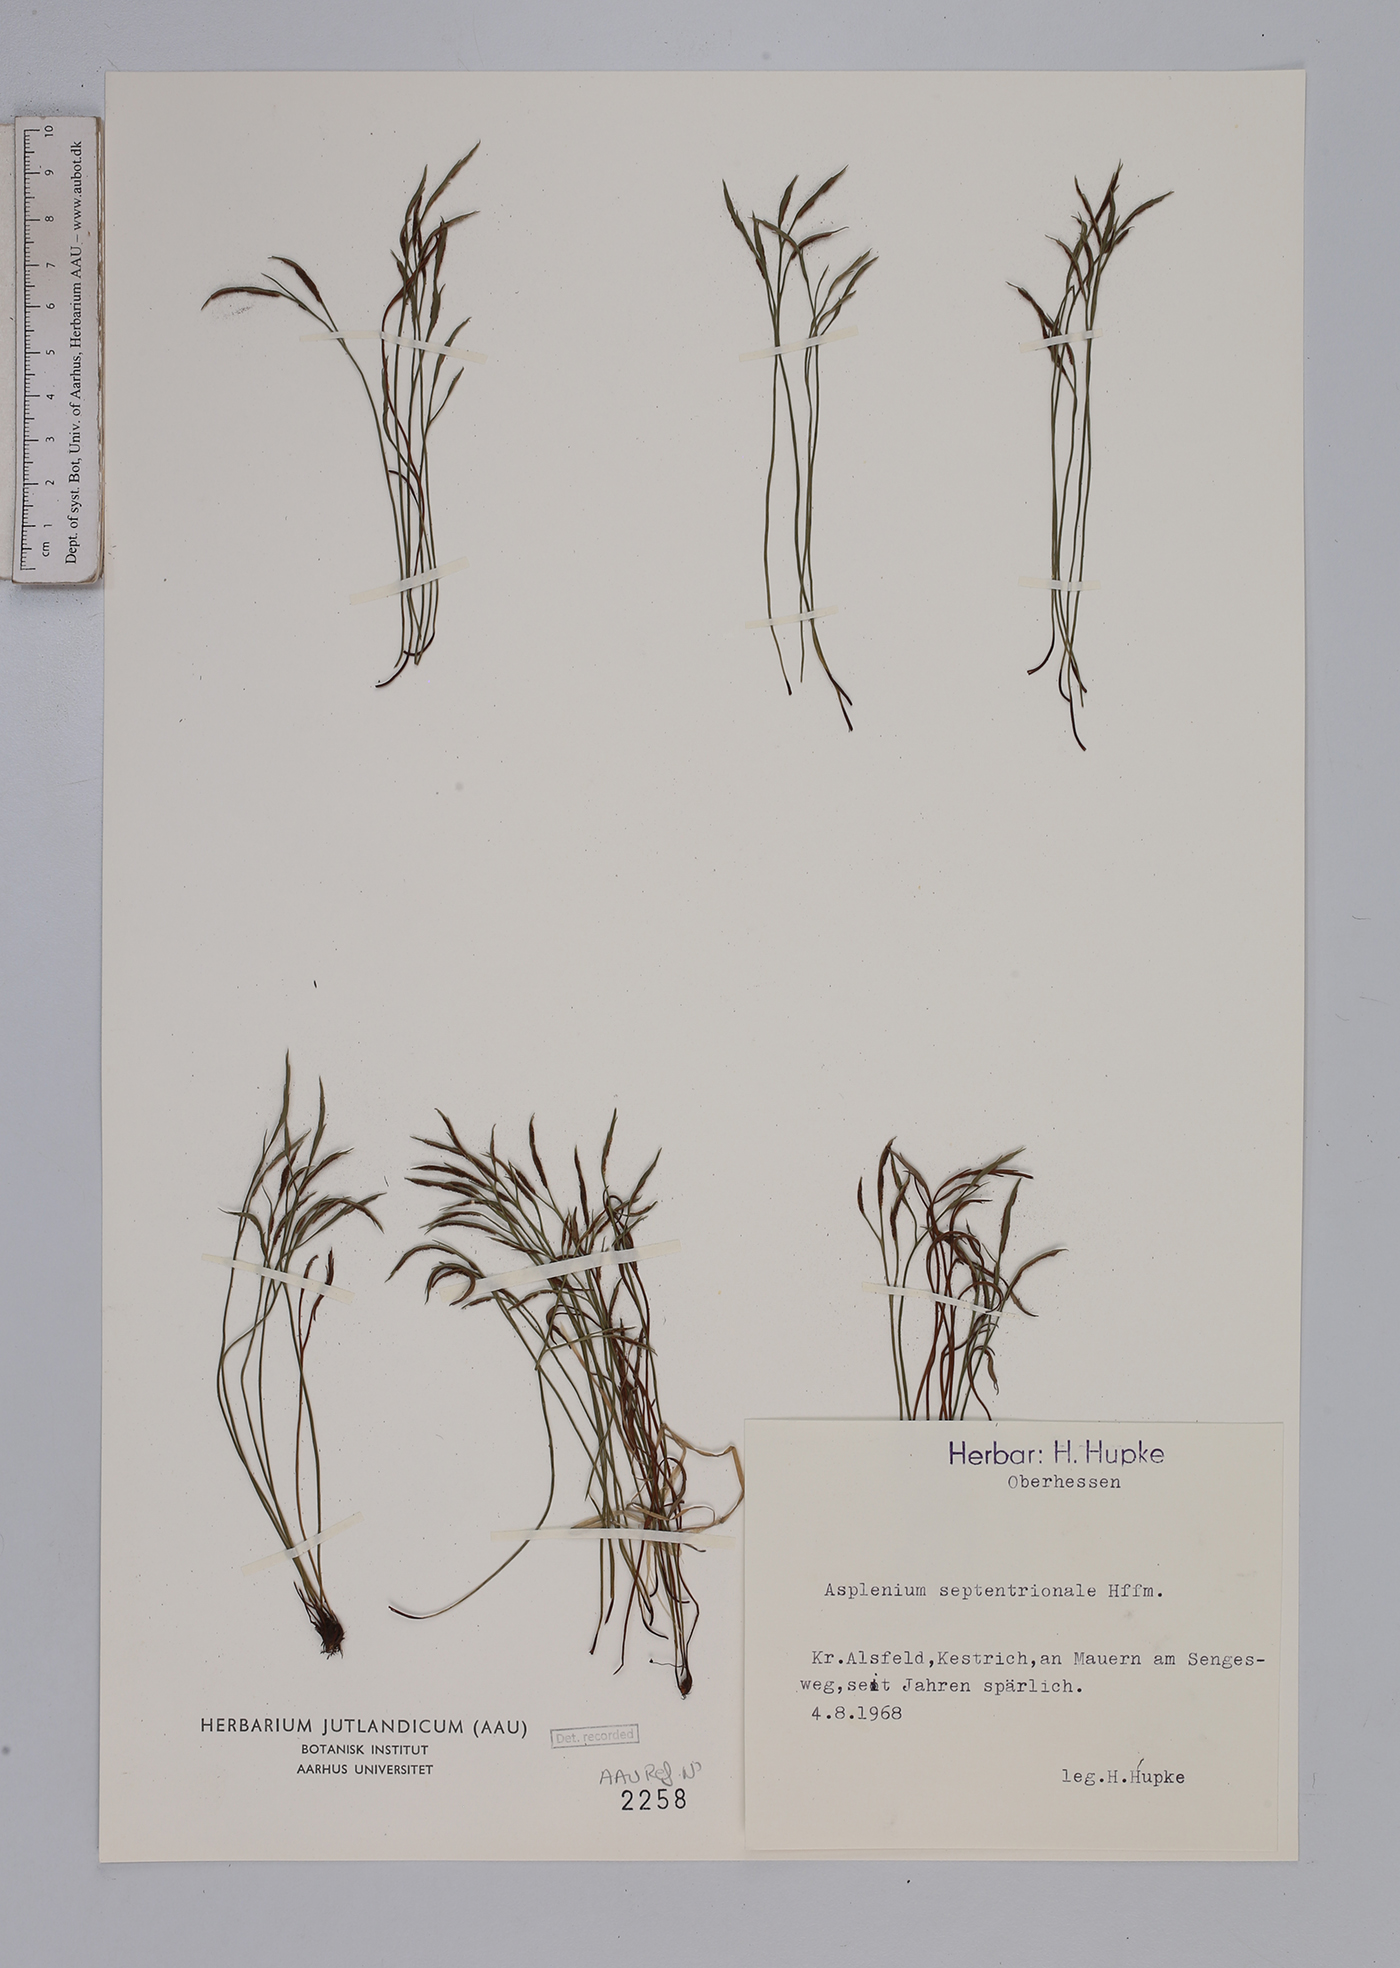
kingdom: Plantae
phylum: Tracheophyta
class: Polypodiopsida
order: Polypodiales
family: Aspleniaceae
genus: Asplenium
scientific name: Asplenium septentrionale
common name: Forked spleenwort
